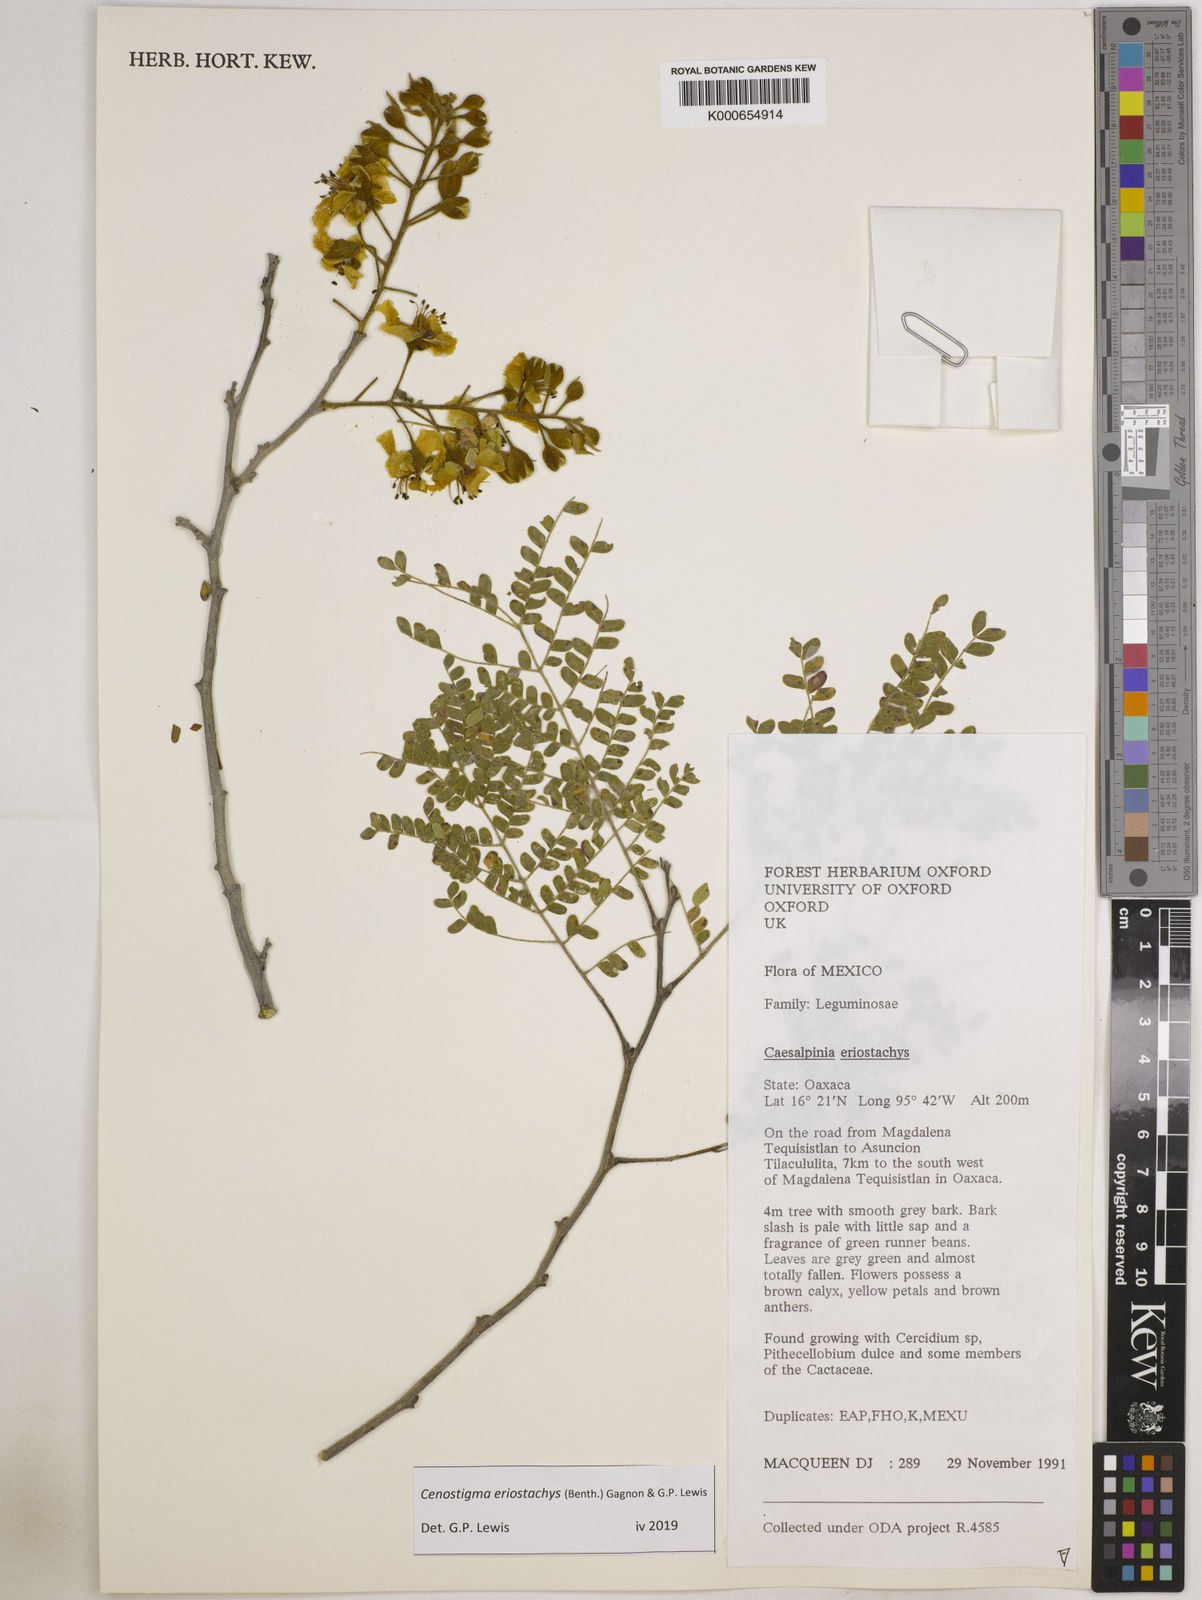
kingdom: Plantae
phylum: Tracheophyta
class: Magnoliopsida
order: Fabales
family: Fabaceae
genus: Cenostigma
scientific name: Cenostigma eriostachys
